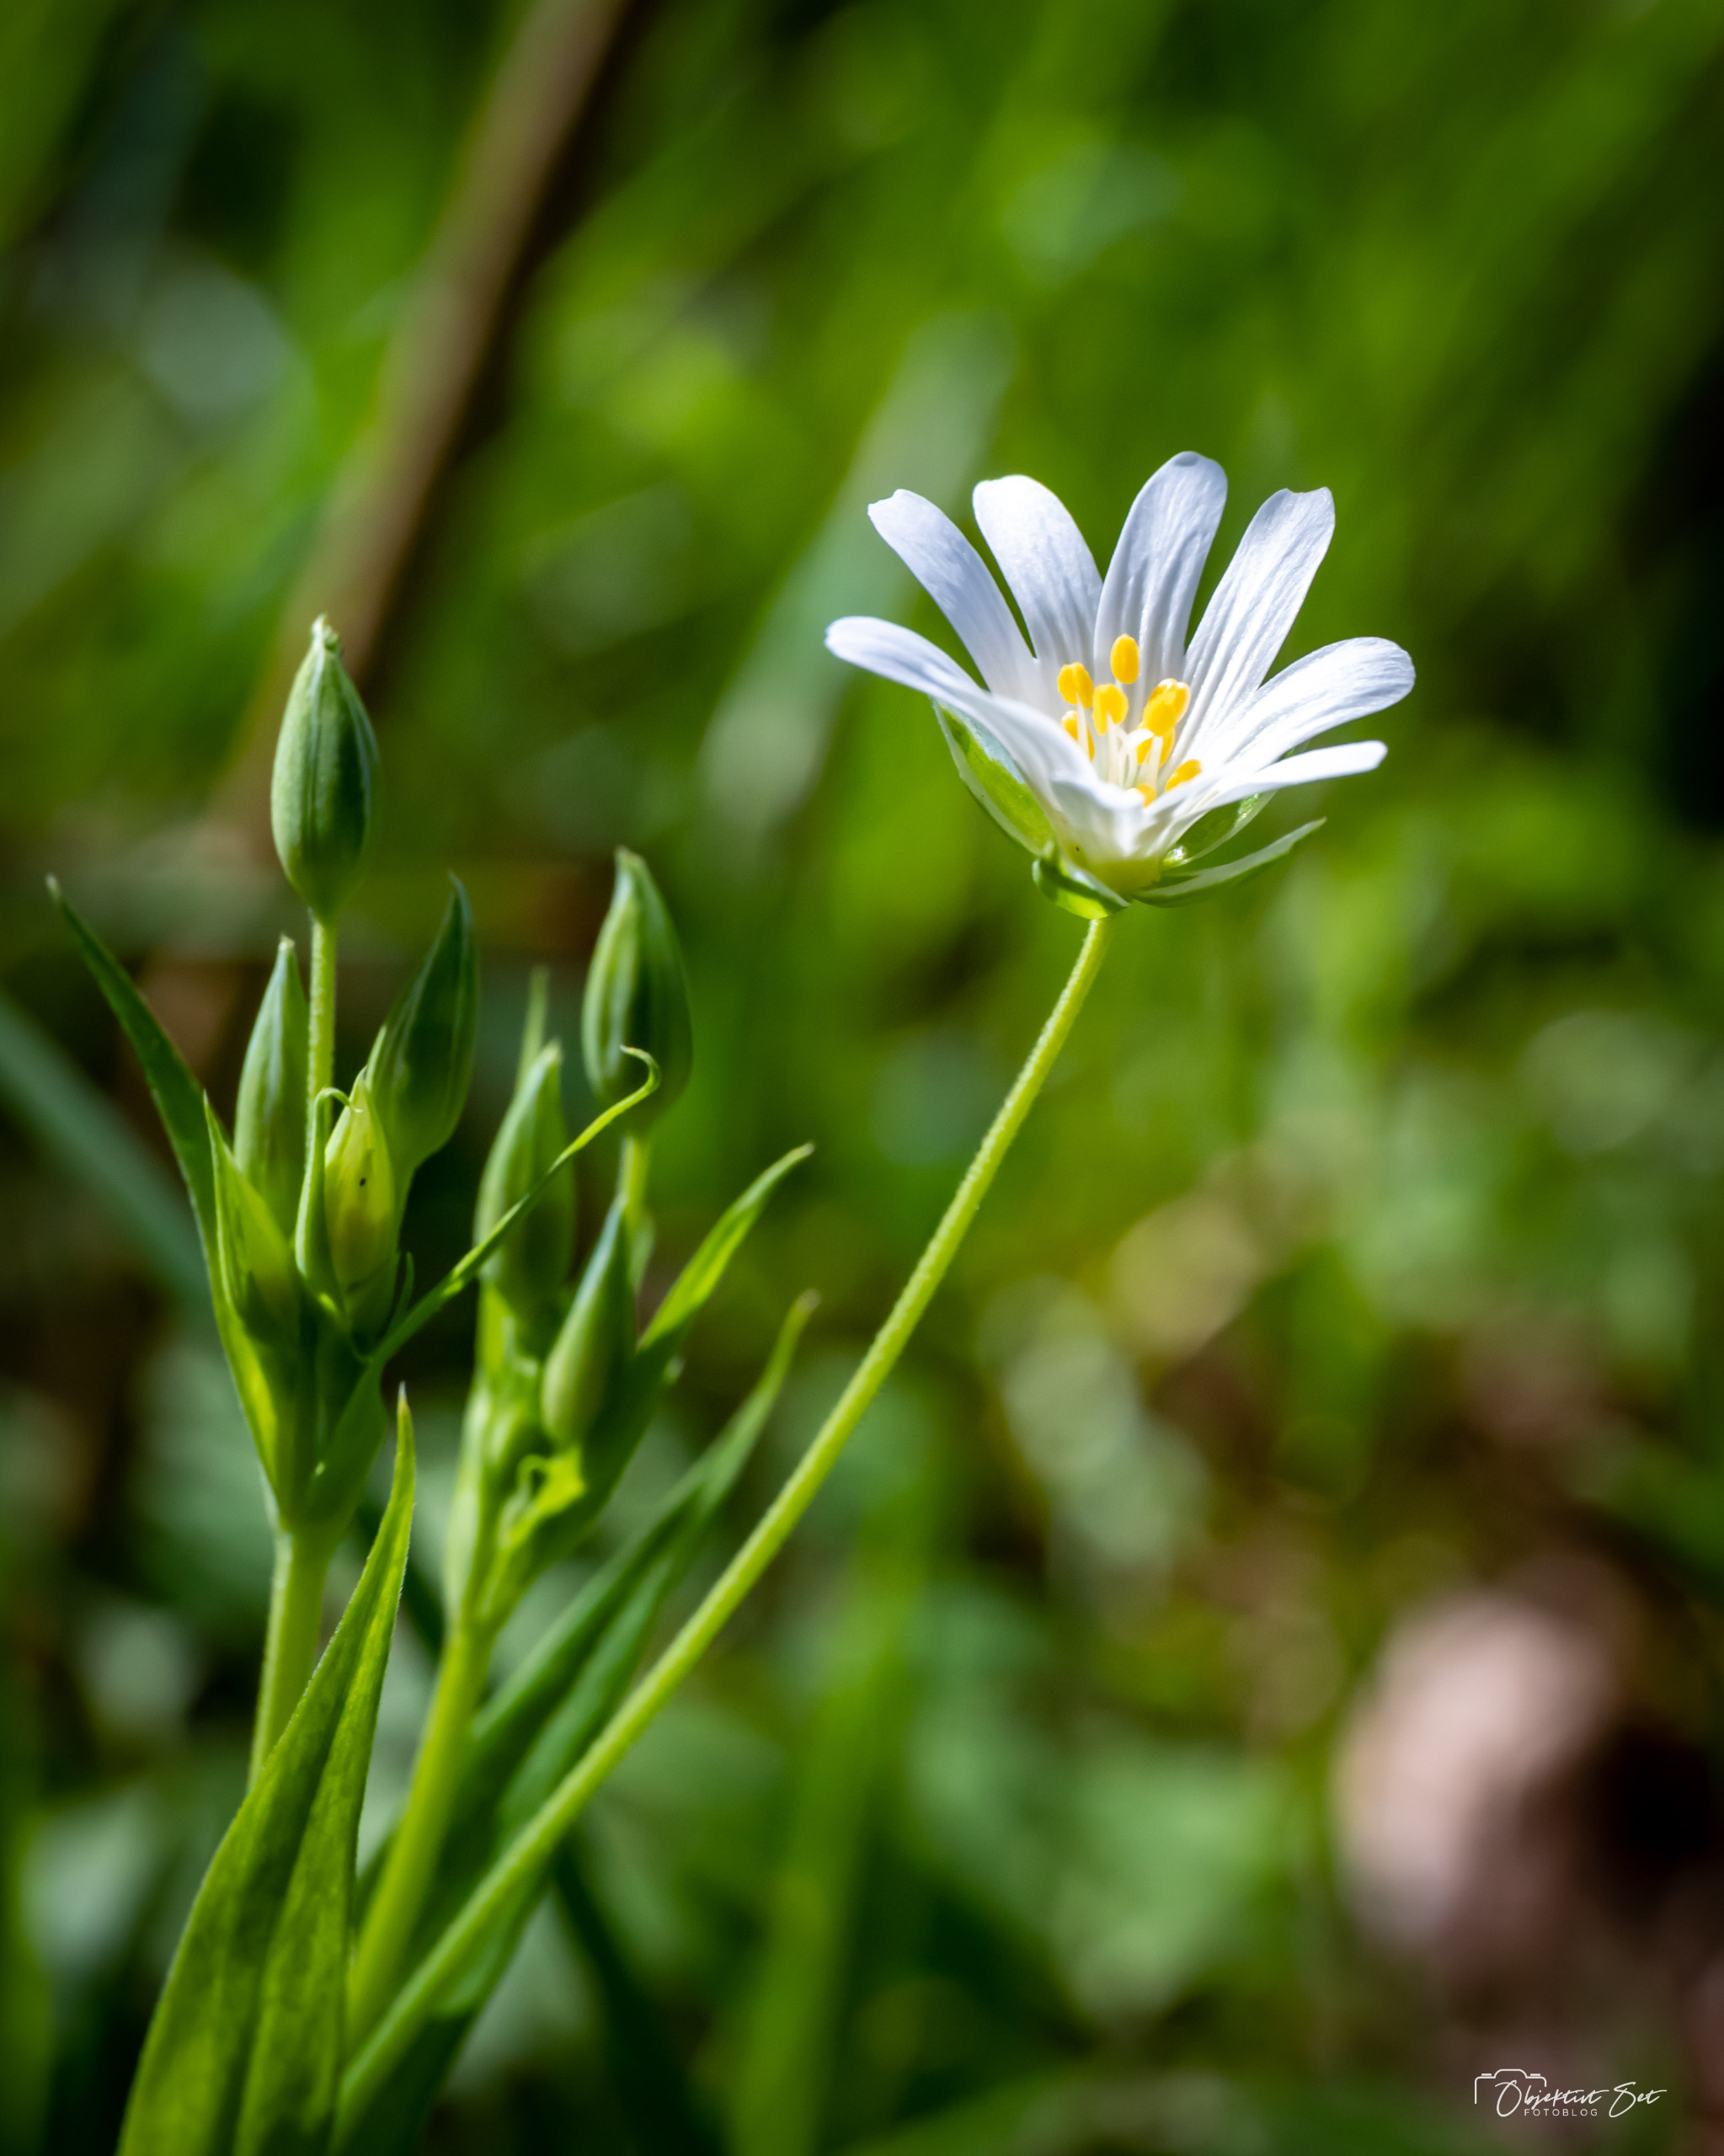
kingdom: Plantae
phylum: Tracheophyta
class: Magnoliopsida
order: Caryophyllales
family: Caryophyllaceae
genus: Rabelera
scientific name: Rabelera holostea
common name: Stor fladstjerne
